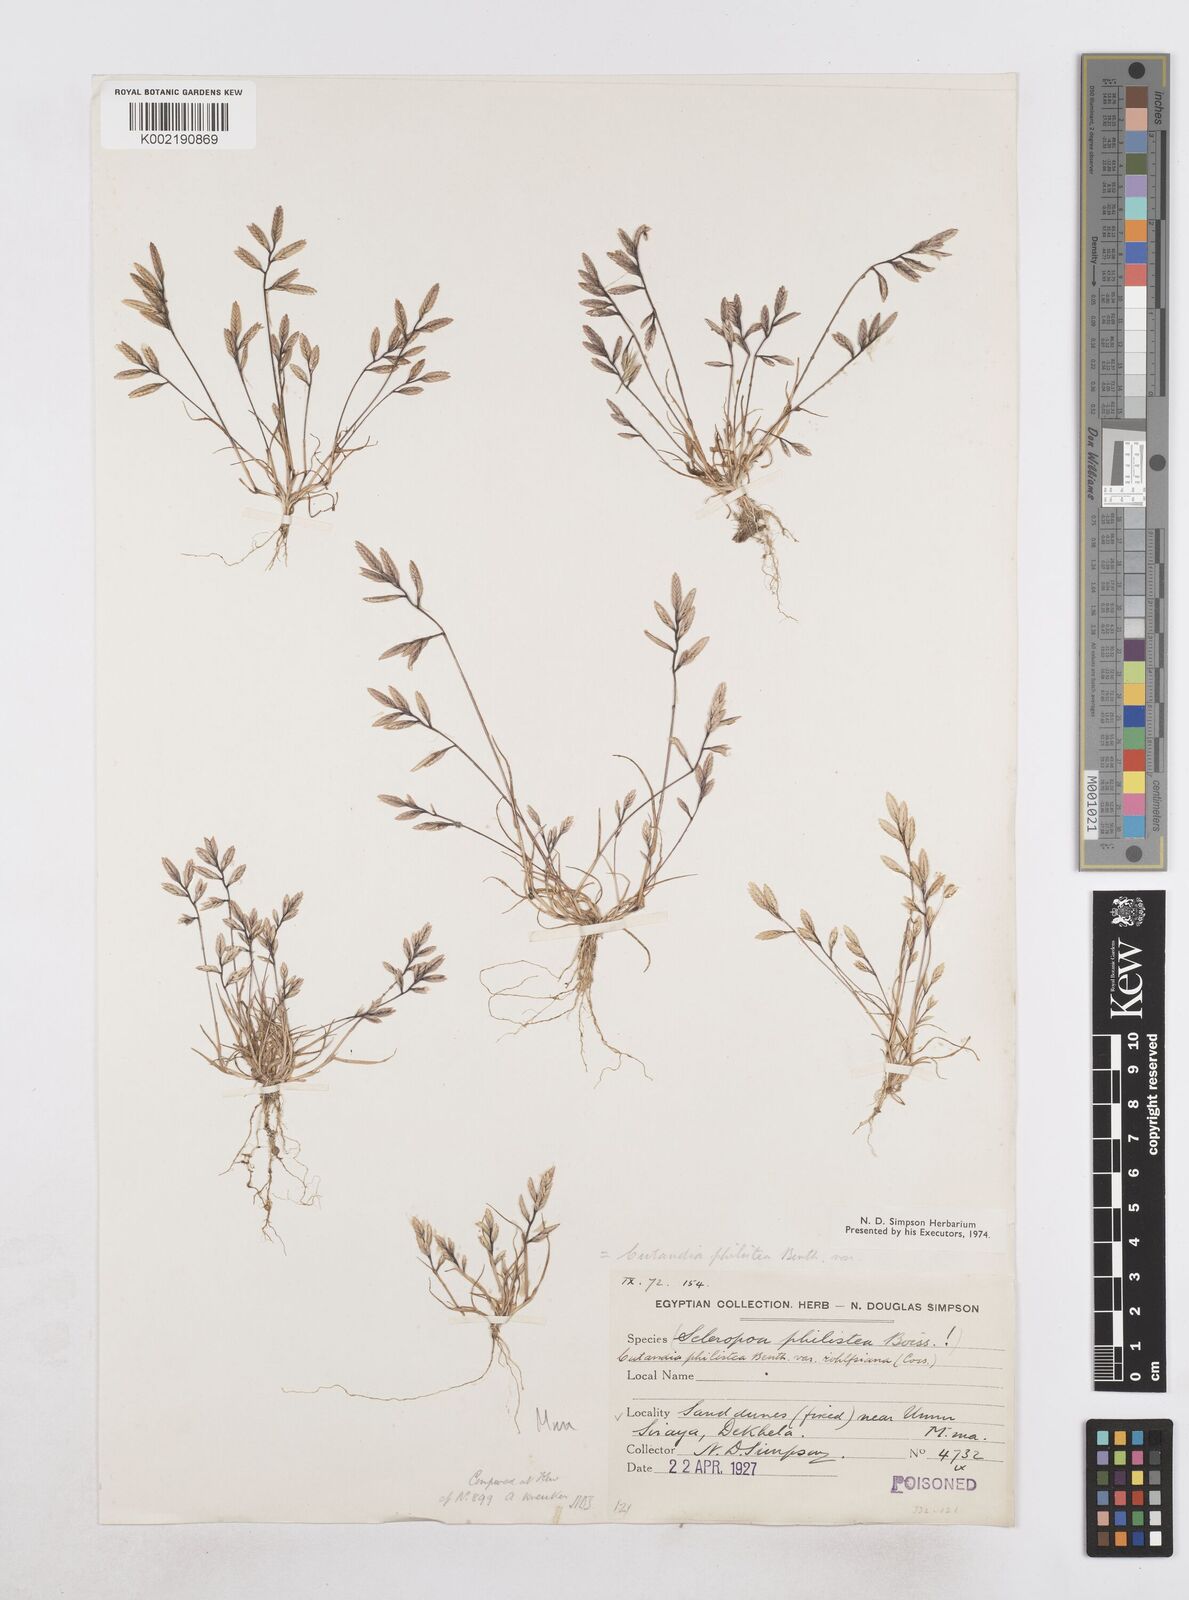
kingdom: Plantae
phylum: Tracheophyta
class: Liliopsida
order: Poales
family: Poaceae
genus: Desmazeria
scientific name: Desmazeria philistaea
